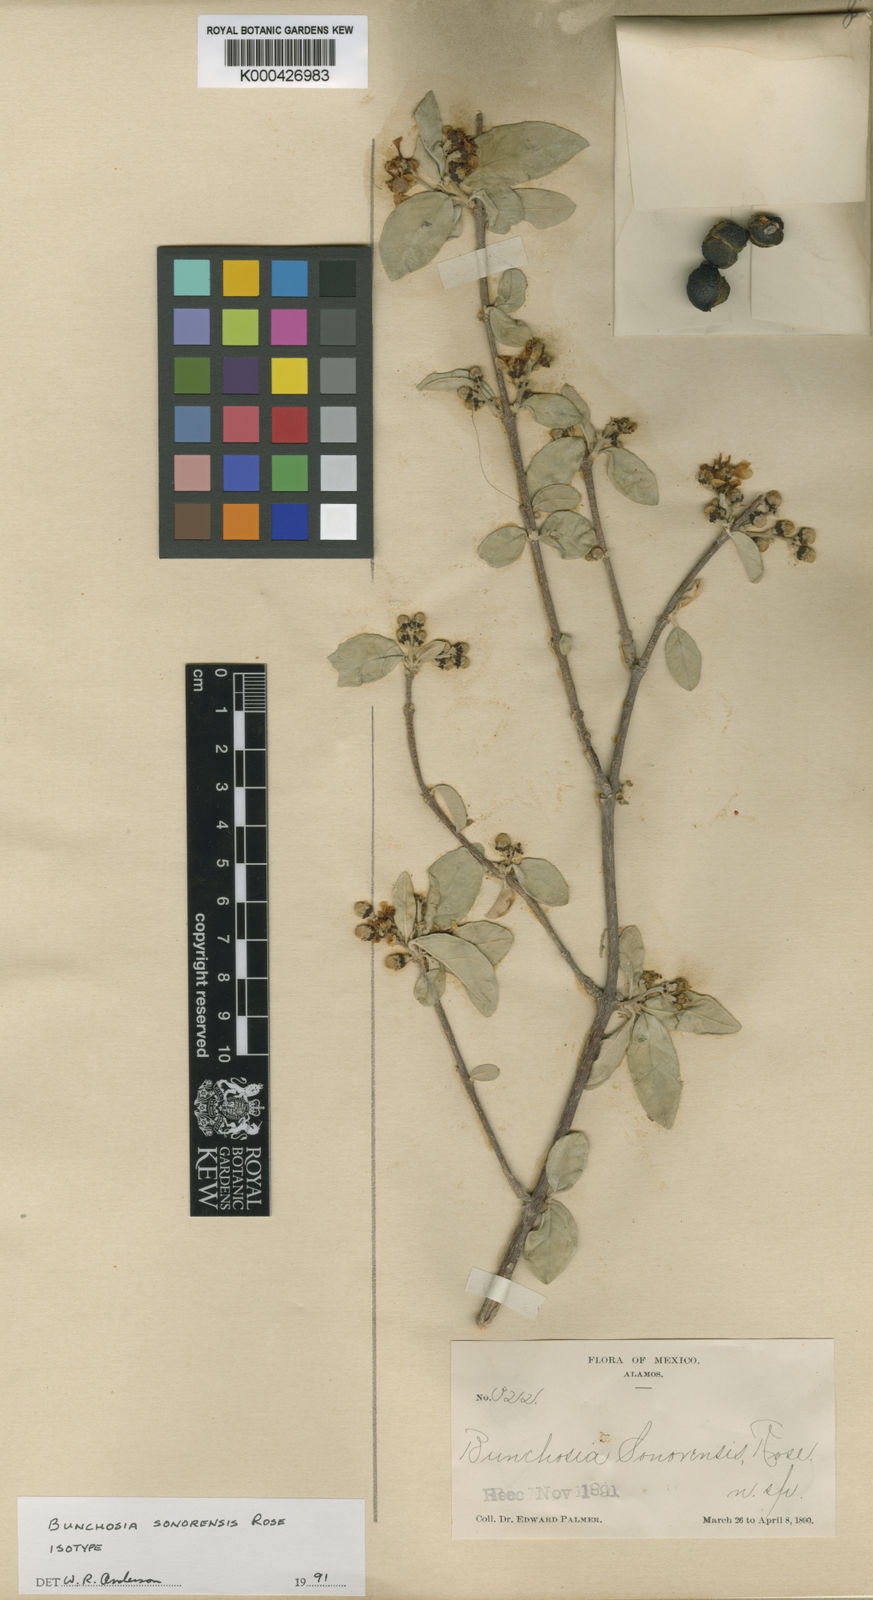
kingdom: Plantae
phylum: Tracheophyta
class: Magnoliopsida
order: Malpighiales
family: Malpighiaceae
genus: Bunchosia
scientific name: Bunchosia sonorensis
